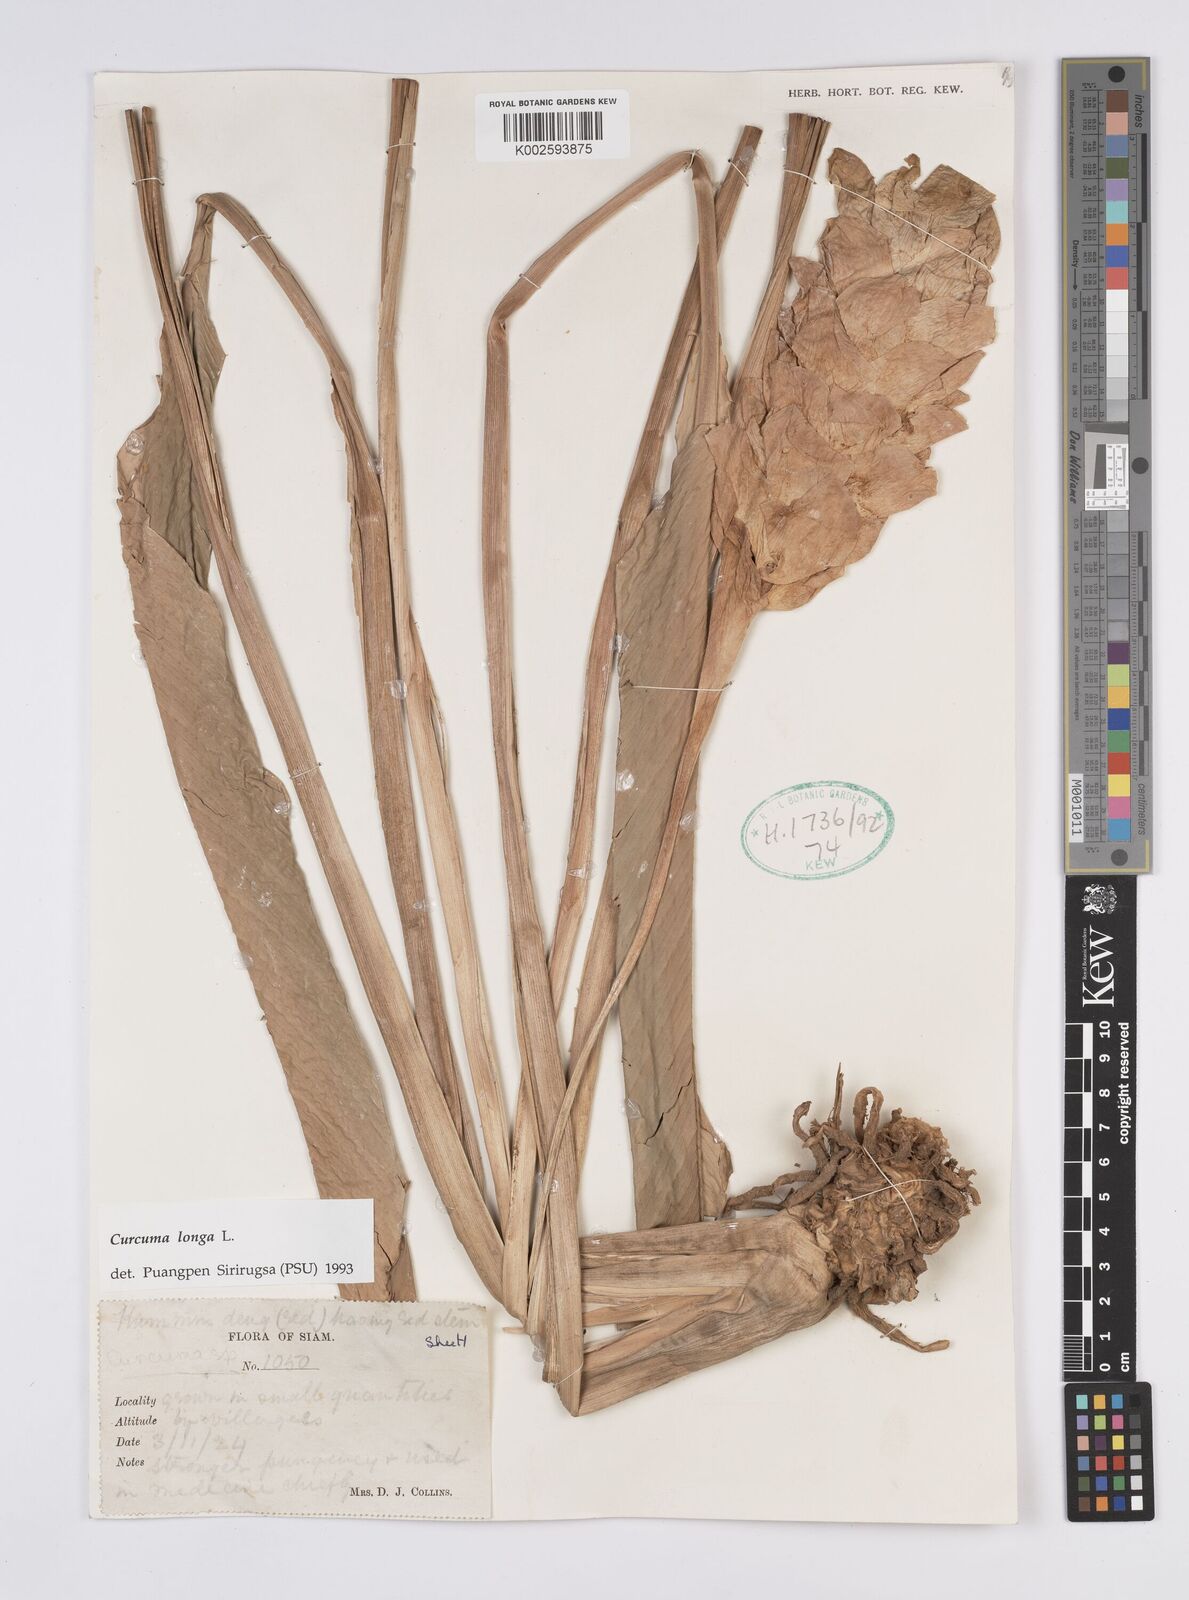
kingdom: Plantae
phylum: Tracheophyta
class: Liliopsida
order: Zingiberales
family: Zingiberaceae
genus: Curcuma
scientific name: Curcuma longa
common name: Turmeric
